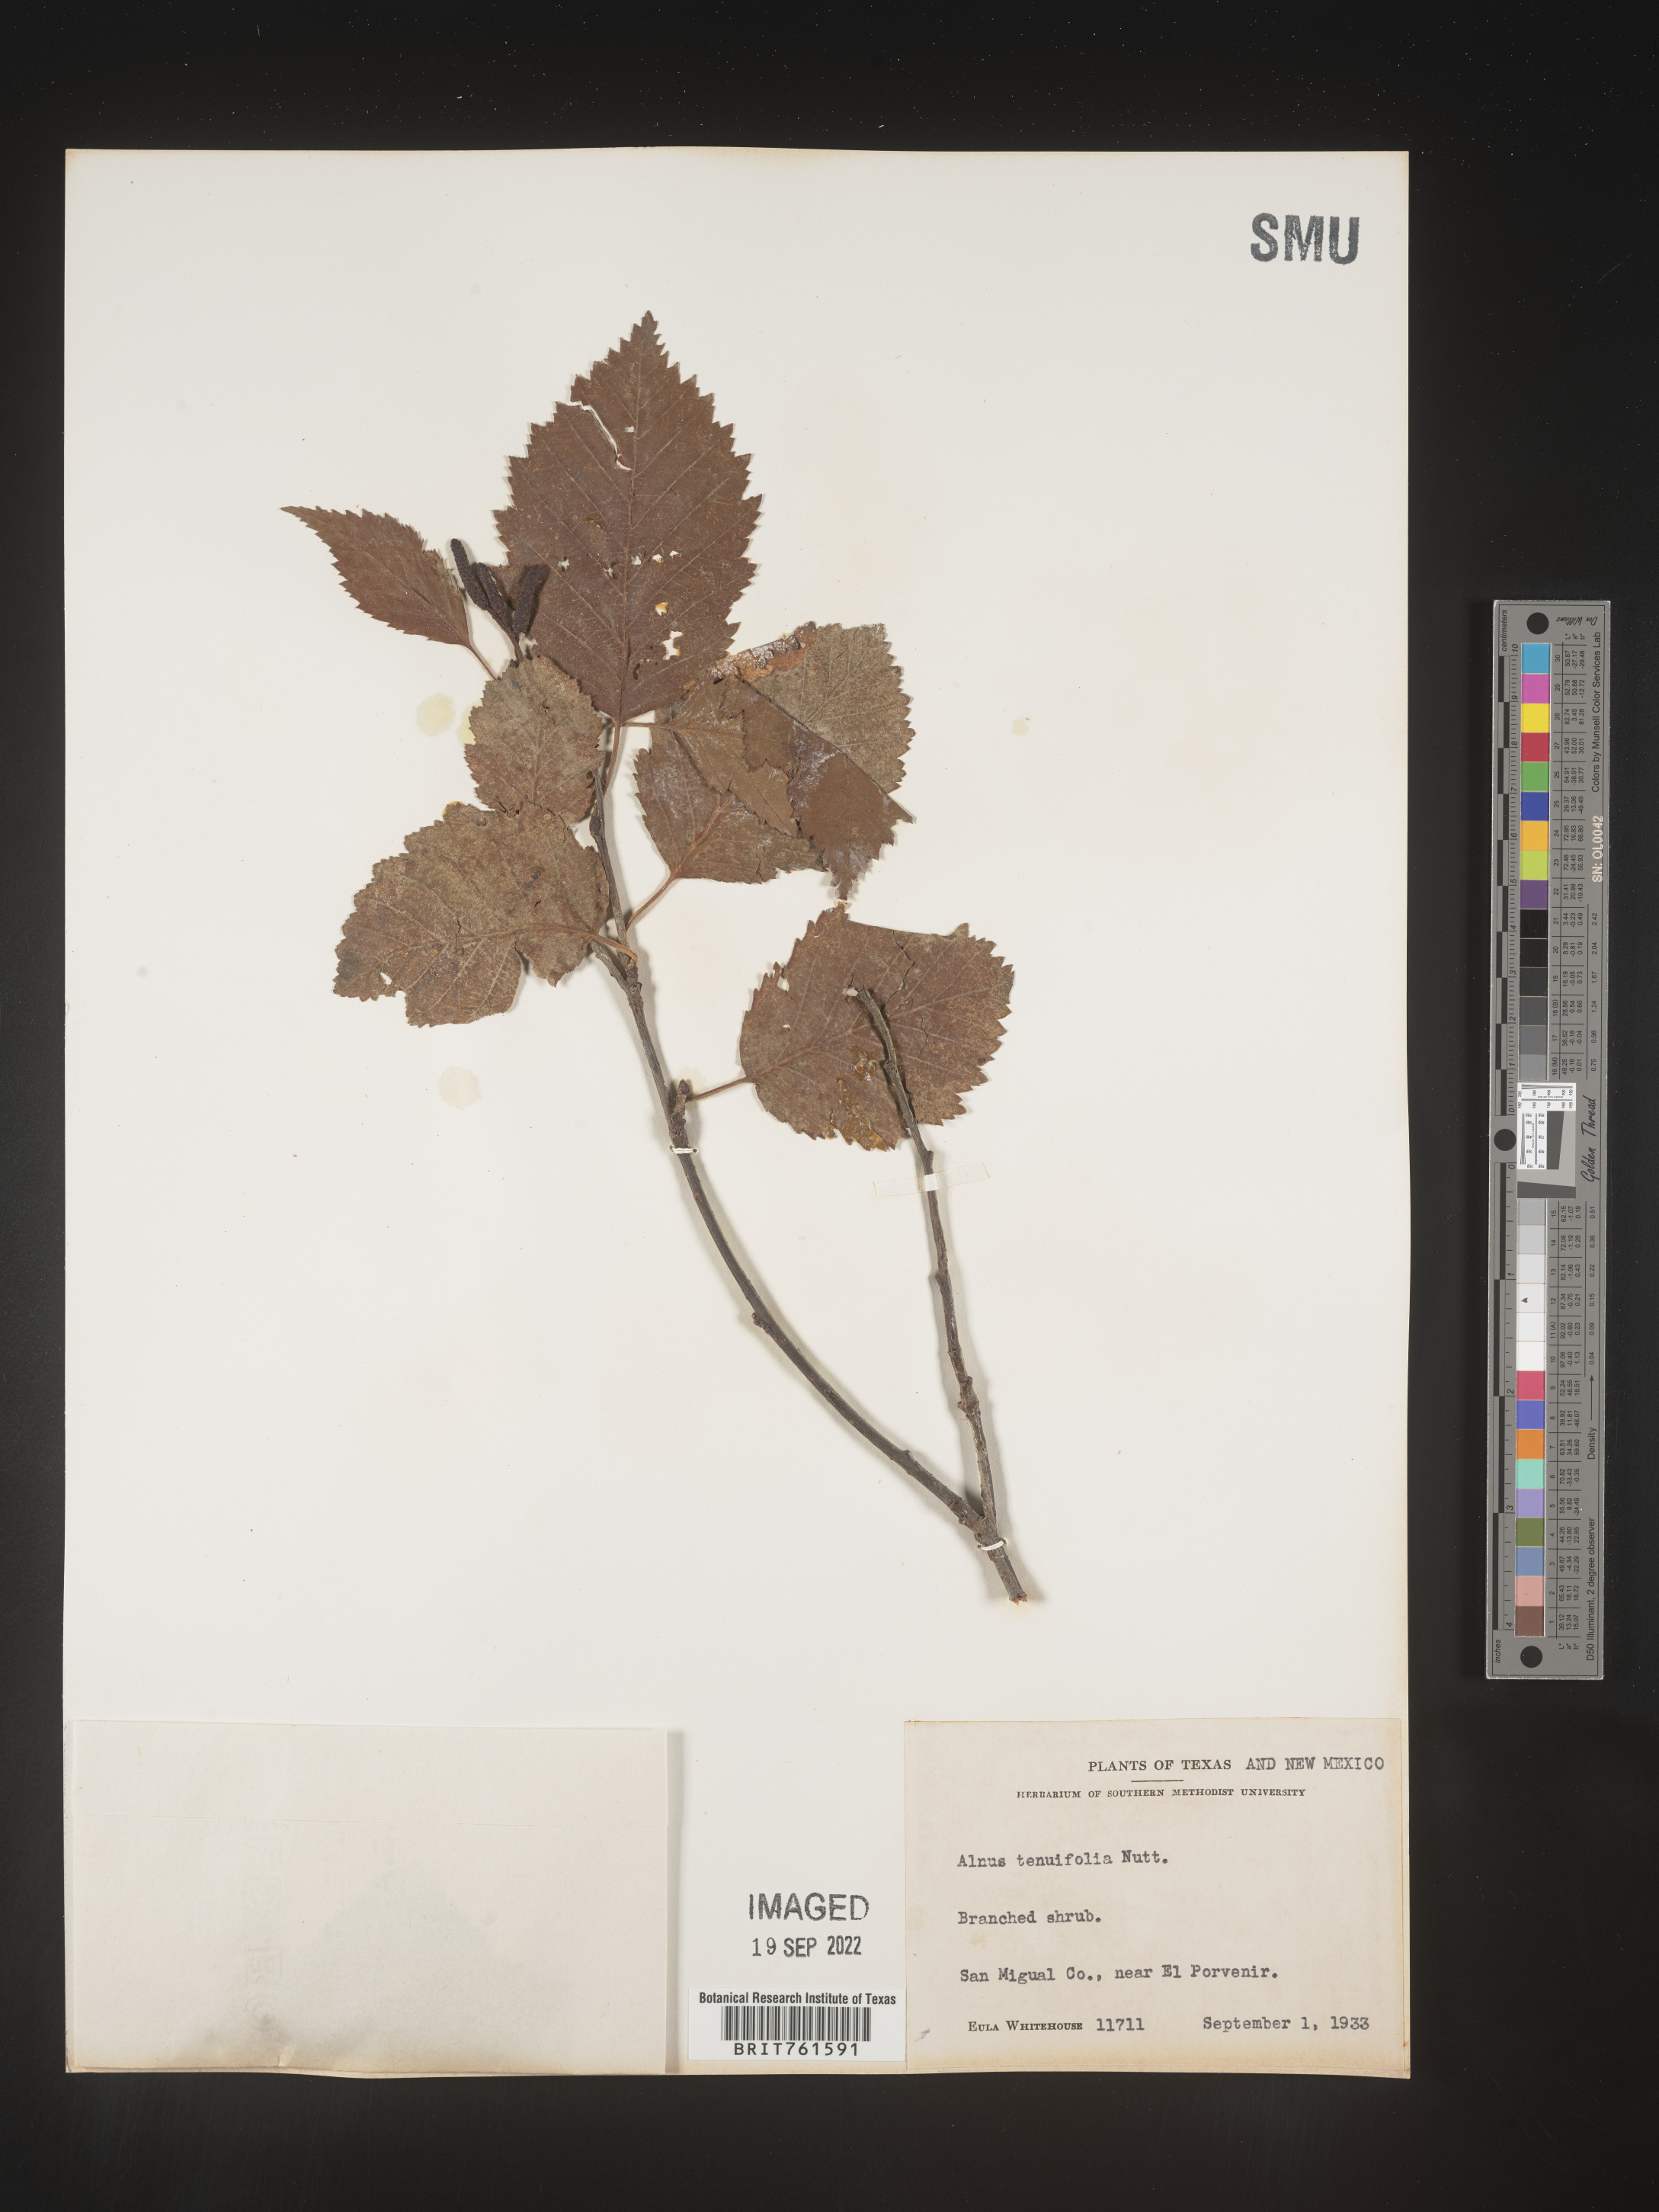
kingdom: Plantae
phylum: Tracheophyta
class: Magnoliopsida
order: Fagales
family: Betulaceae
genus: Alnus
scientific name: Alnus incana
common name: Grey alder
